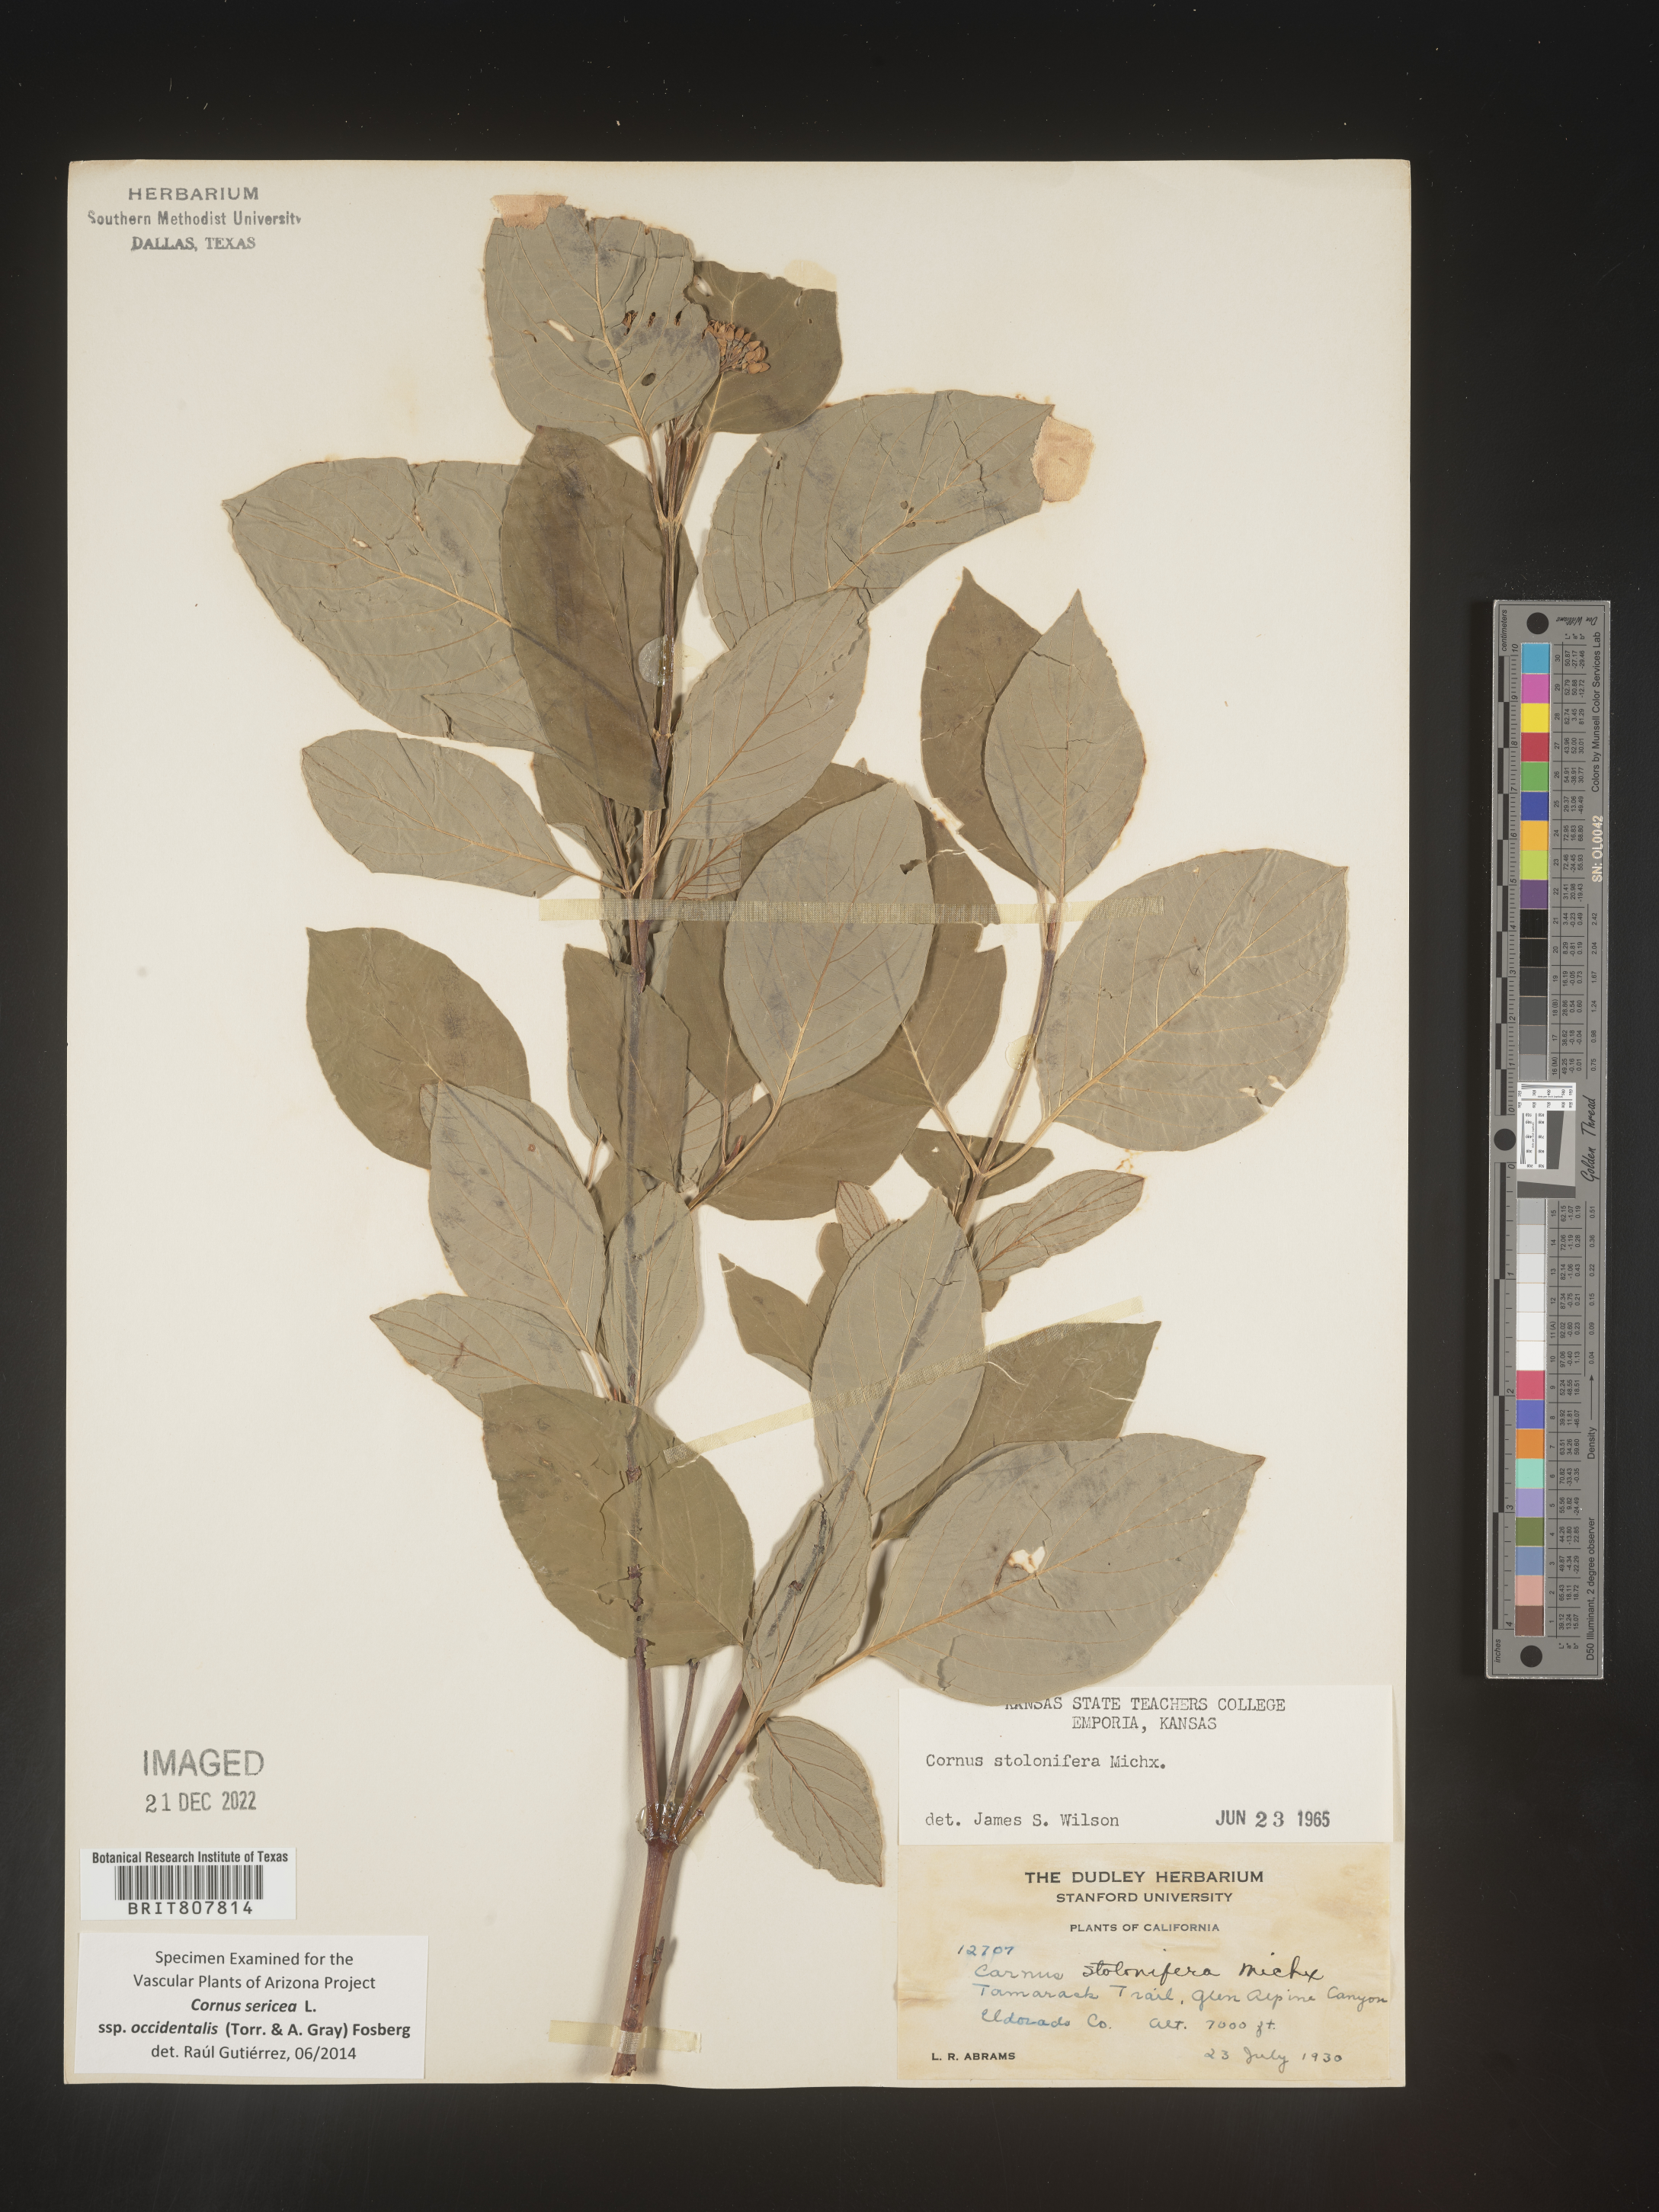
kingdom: Plantae
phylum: Tracheophyta
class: Magnoliopsida
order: Cornales
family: Cornaceae
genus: Cornus
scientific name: Cornus
